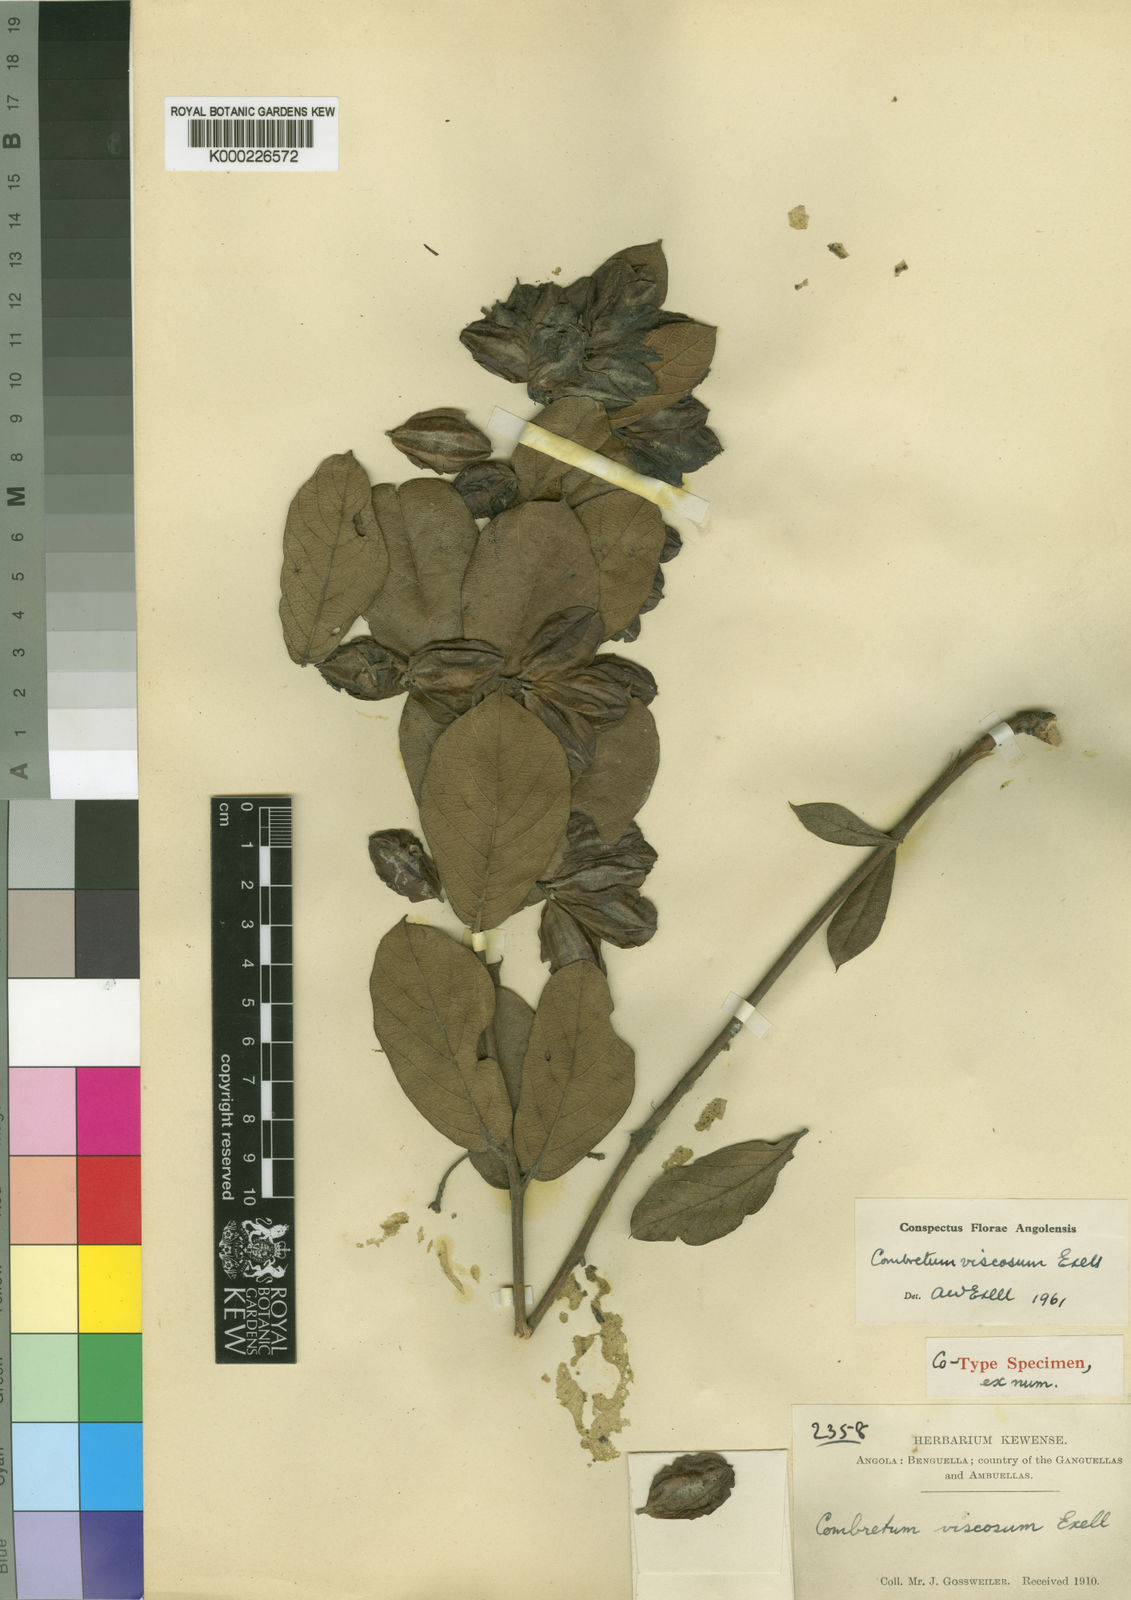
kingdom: Plantae
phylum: Tracheophyta
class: Magnoliopsida
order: Myrtales
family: Combretaceae
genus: Combretum
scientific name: Combretum viscosum
